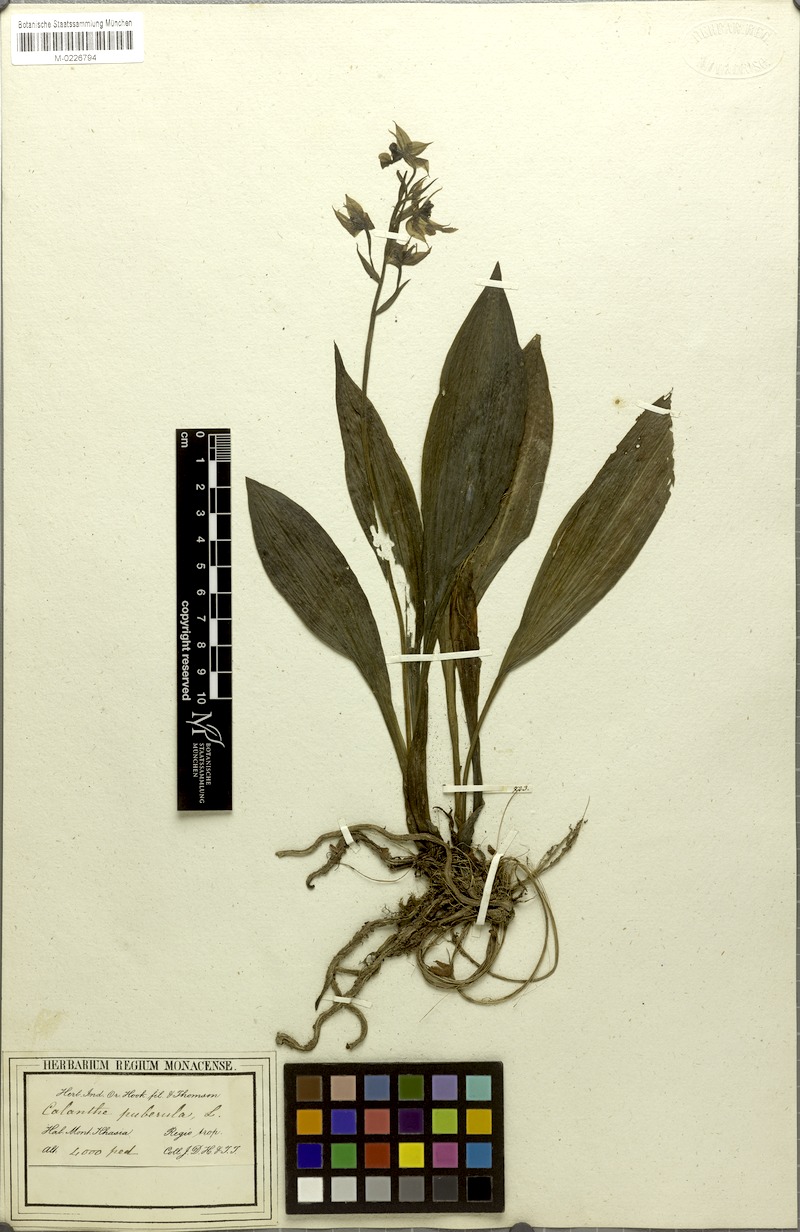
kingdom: Plantae
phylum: Tracheophyta
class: Liliopsida
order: Asparagales
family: Orchidaceae
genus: Calanthe
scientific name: Calanthe puberula
